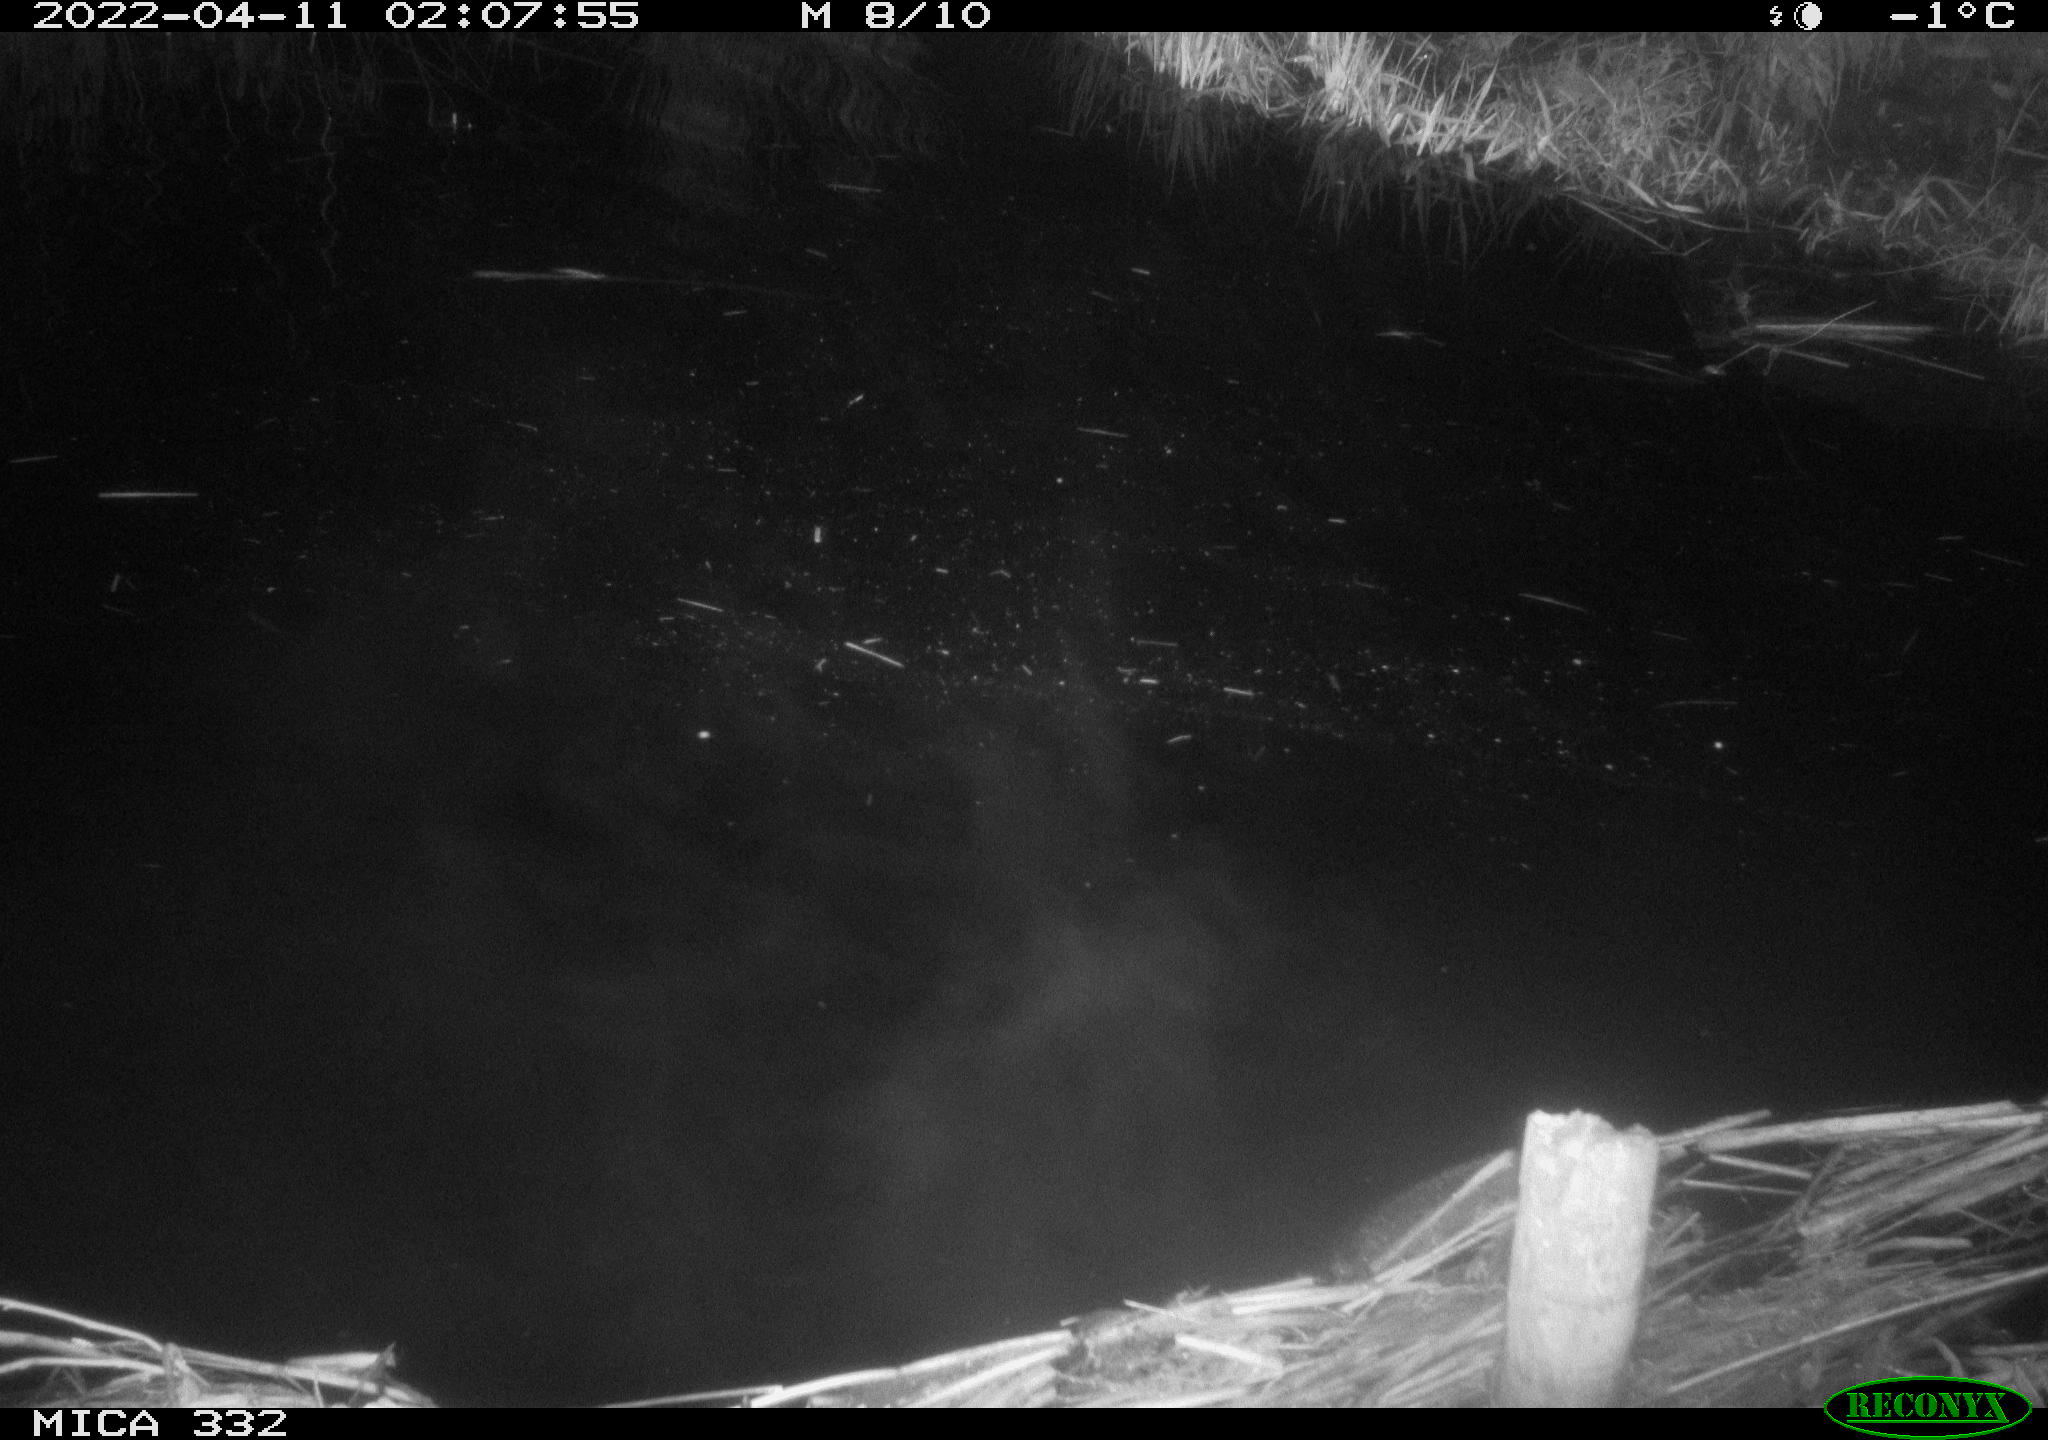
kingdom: Animalia
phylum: Chordata
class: Aves
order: Gruiformes
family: Rallidae
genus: Fulica
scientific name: Fulica atra
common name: Eurasian coot
